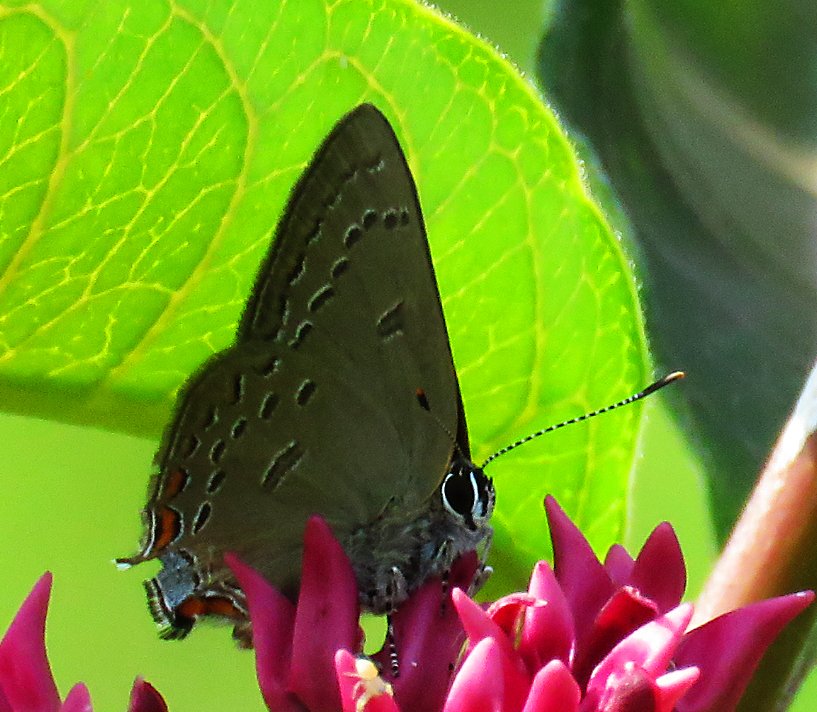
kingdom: Animalia
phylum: Arthropoda
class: Insecta
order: Lepidoptera
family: Lycaenidae
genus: Satyrium
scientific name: Satyrium edwardsii
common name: Edwards' Hairstreak
